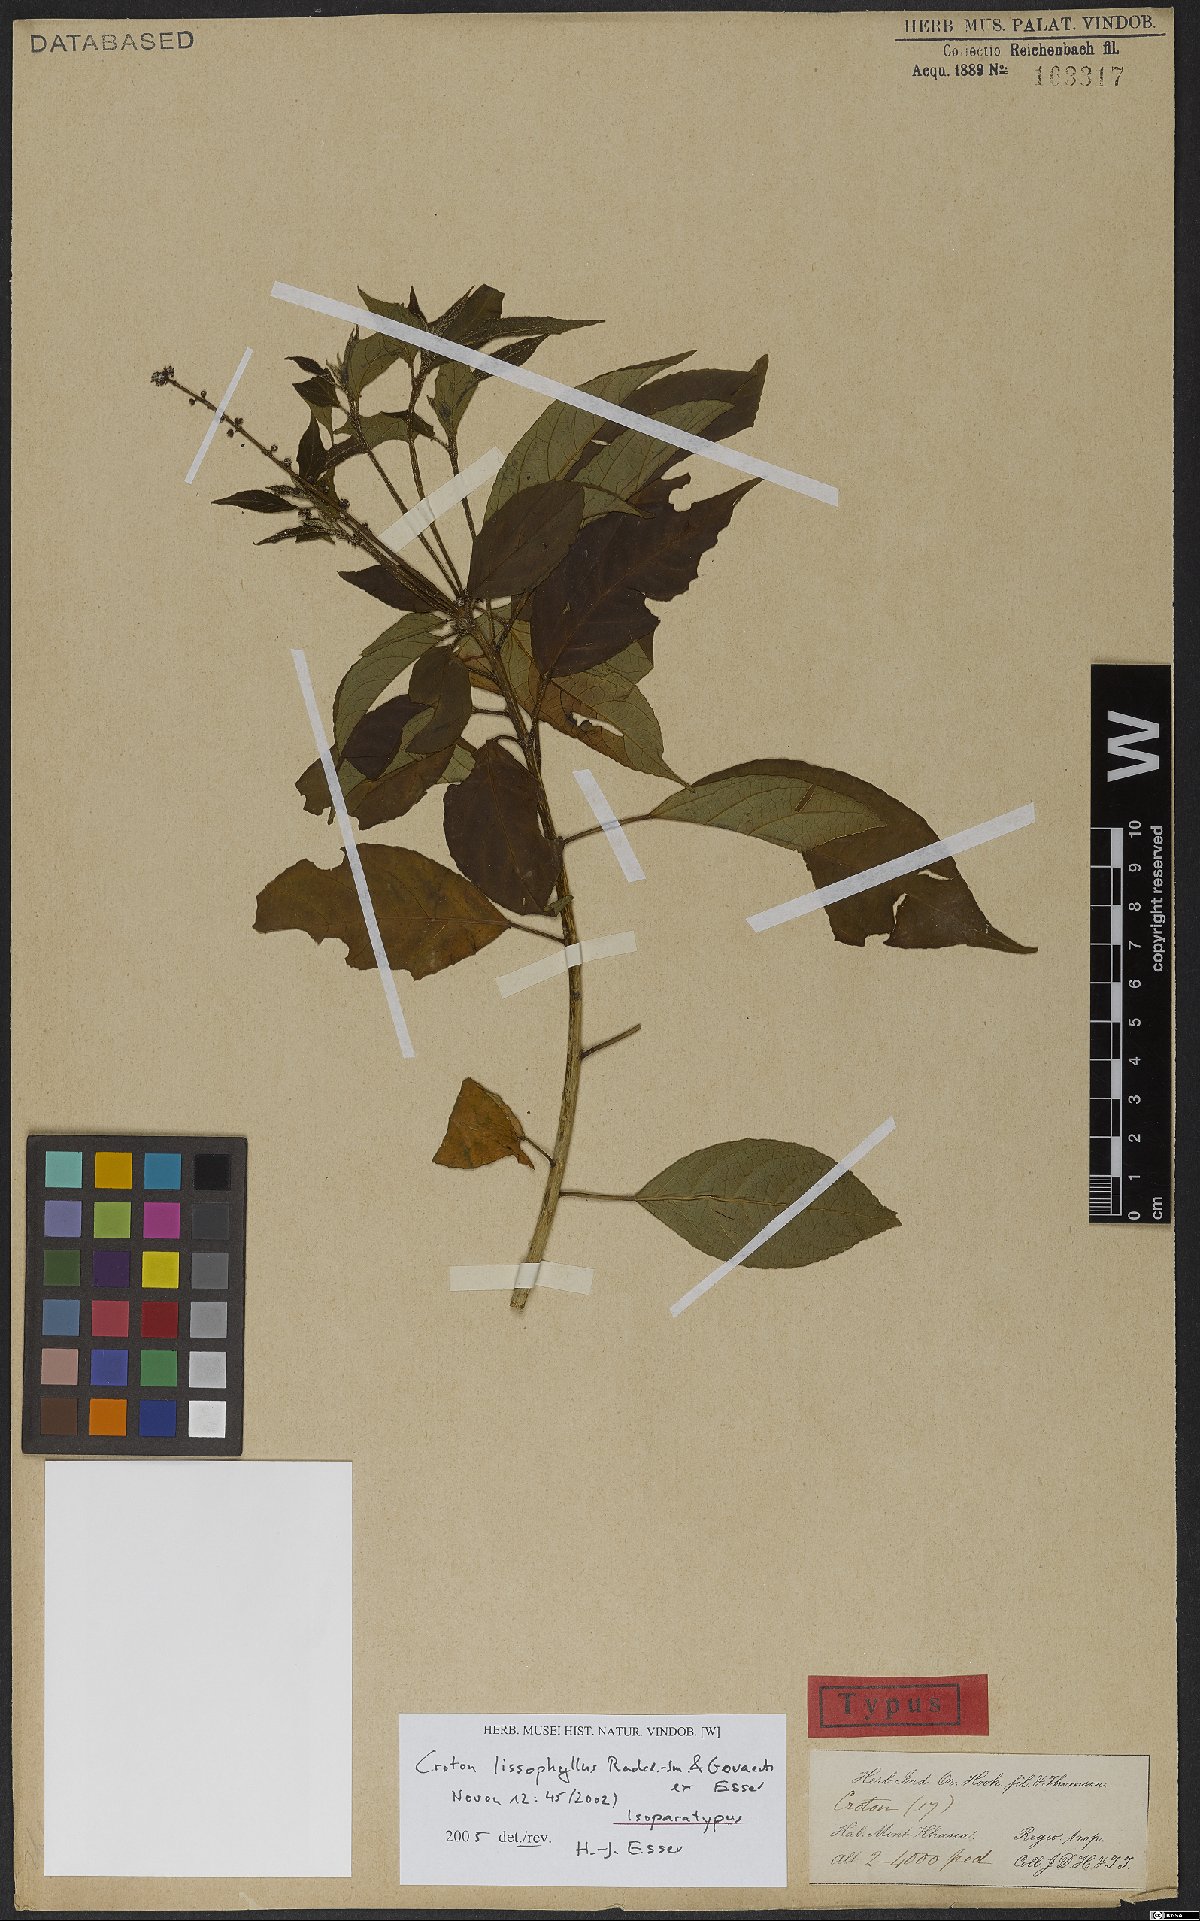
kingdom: Plantae
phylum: Tracheophyta
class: Magnoliopsida
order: Malpighiales
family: Euphorbiaceae
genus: Croton
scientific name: Croton lissophyllus
